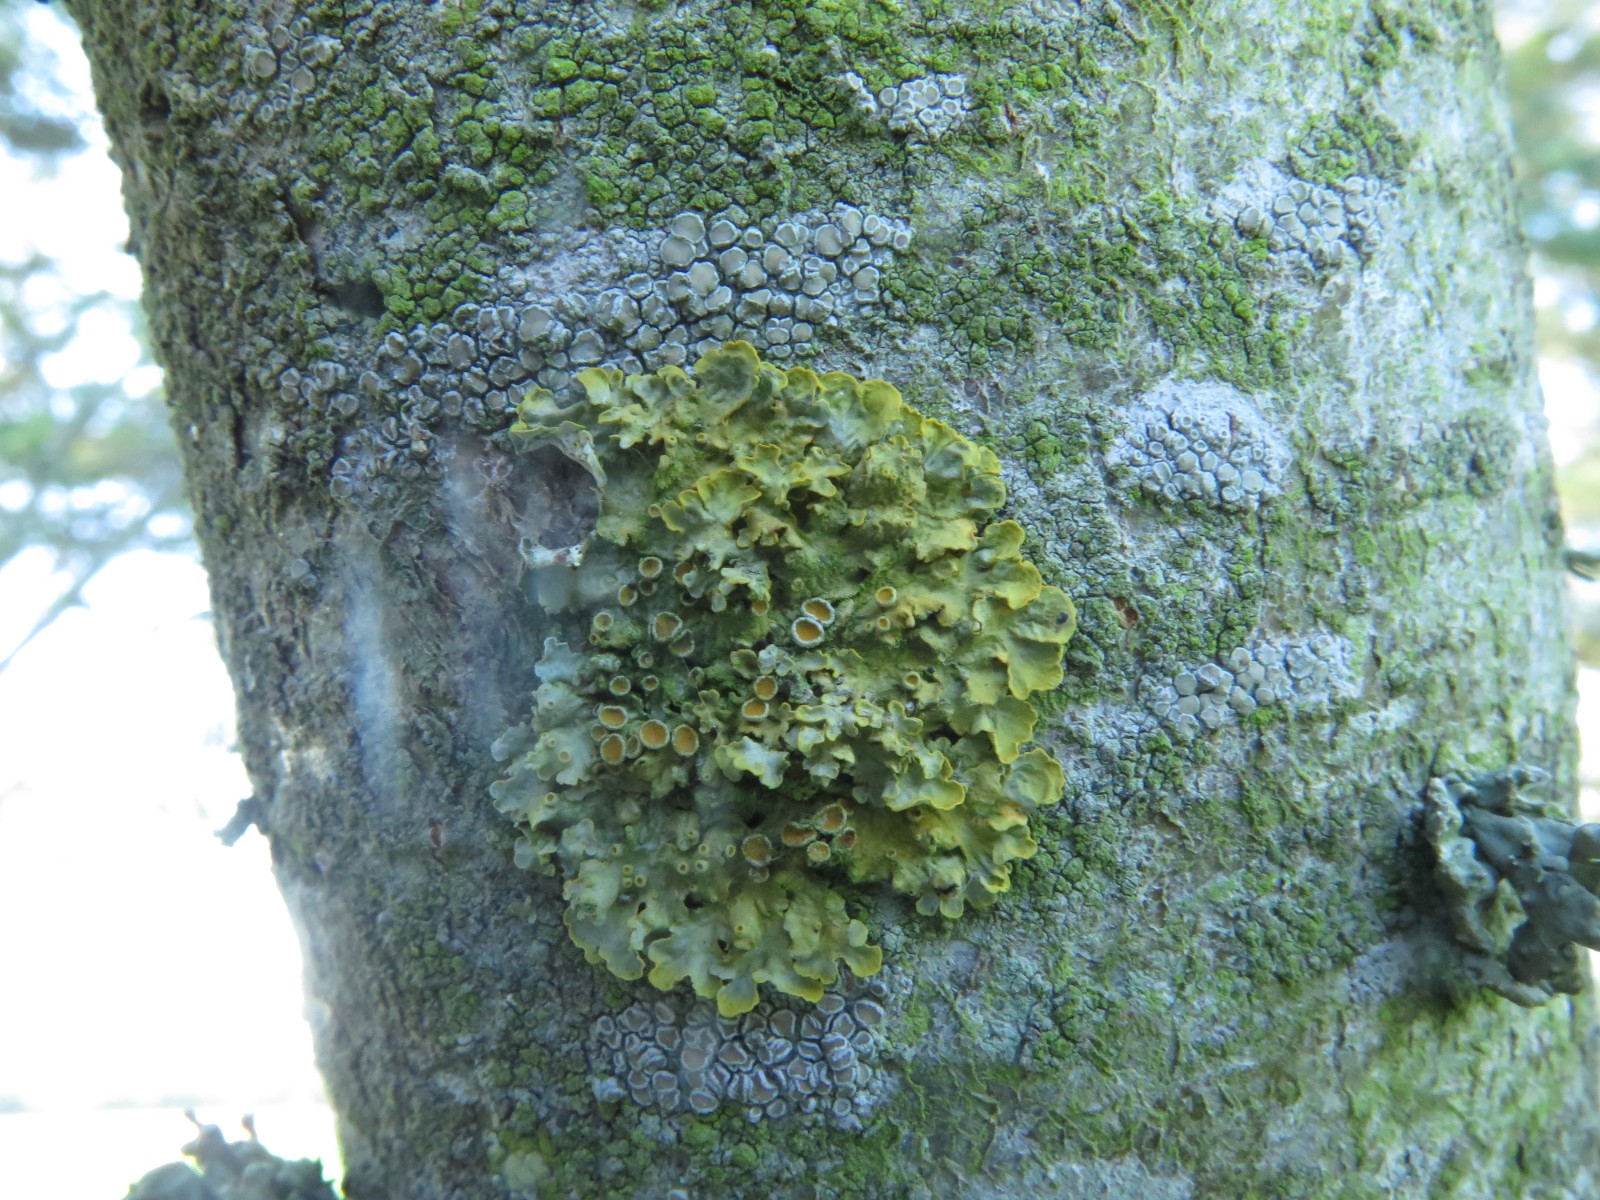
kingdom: Fungi
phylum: Ascomycota
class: Lecanoromycetes
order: Teloschistales
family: Teloschistaceae
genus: Xanthoria
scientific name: Xanthoria parietina
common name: almindelig væggelav
